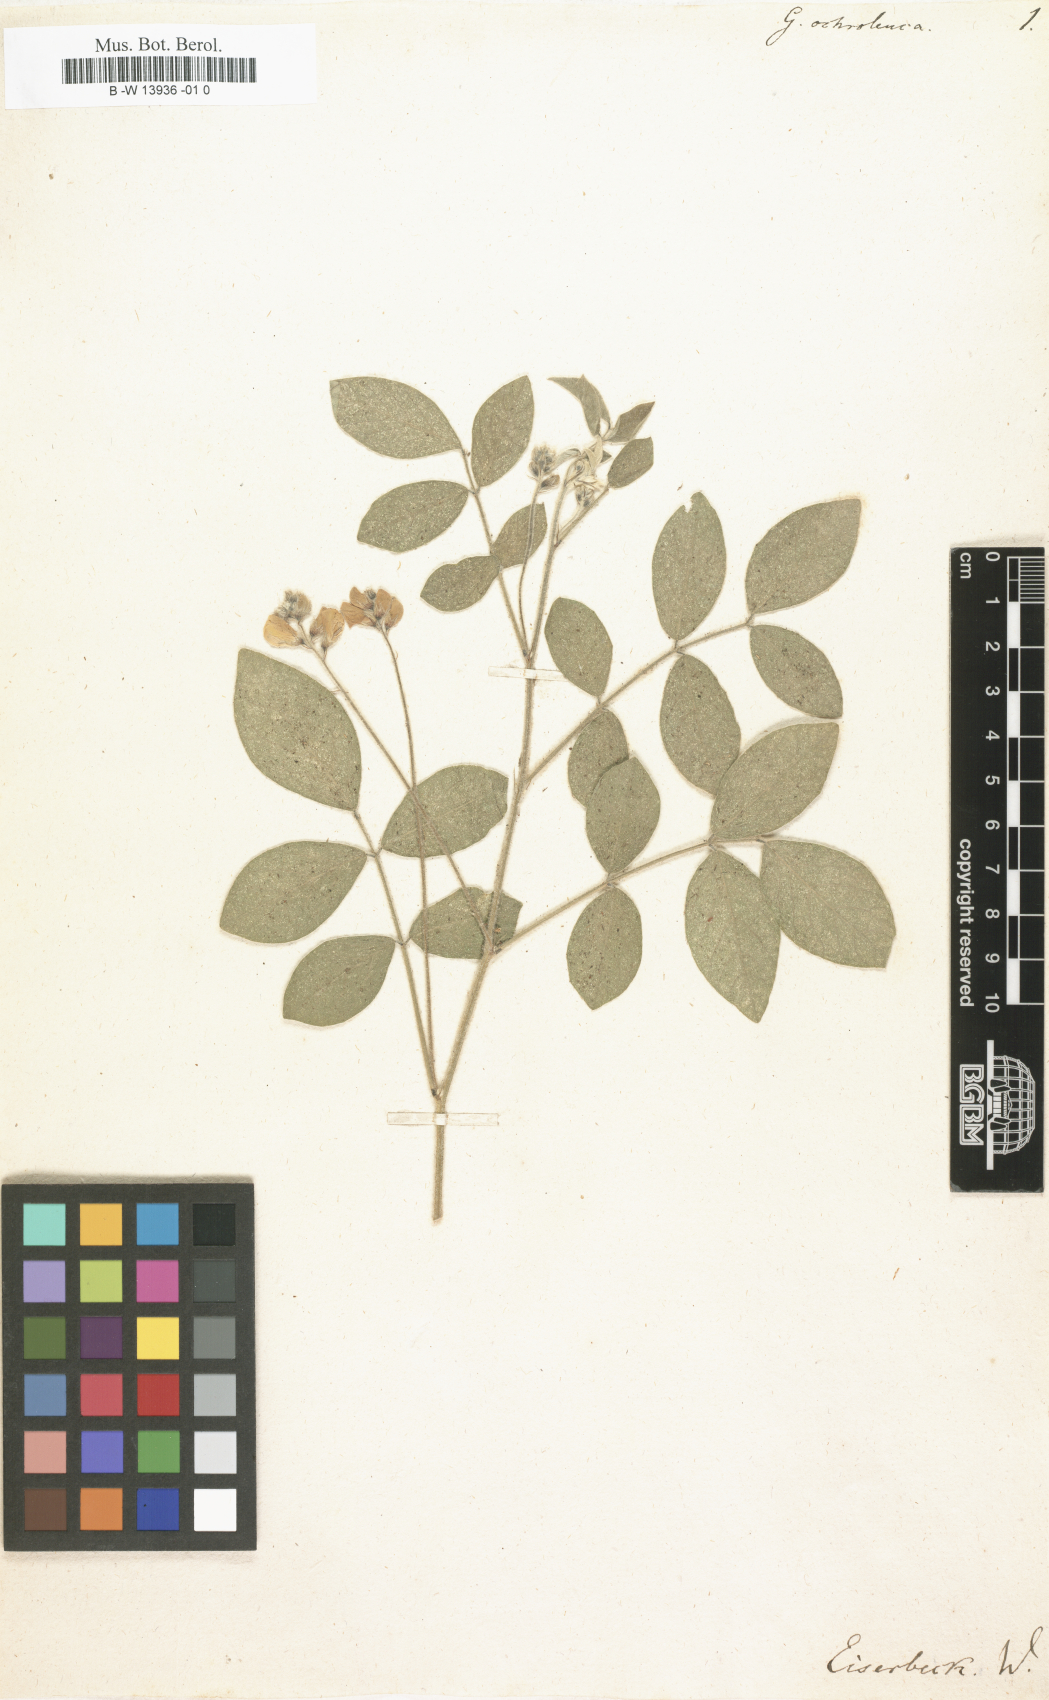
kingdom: Plantae
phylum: Tracheophyta
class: Magnoliopsida
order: Fabales
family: Fabaceae
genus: Coursetia
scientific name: Coursetia caribaea
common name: Anil falso
